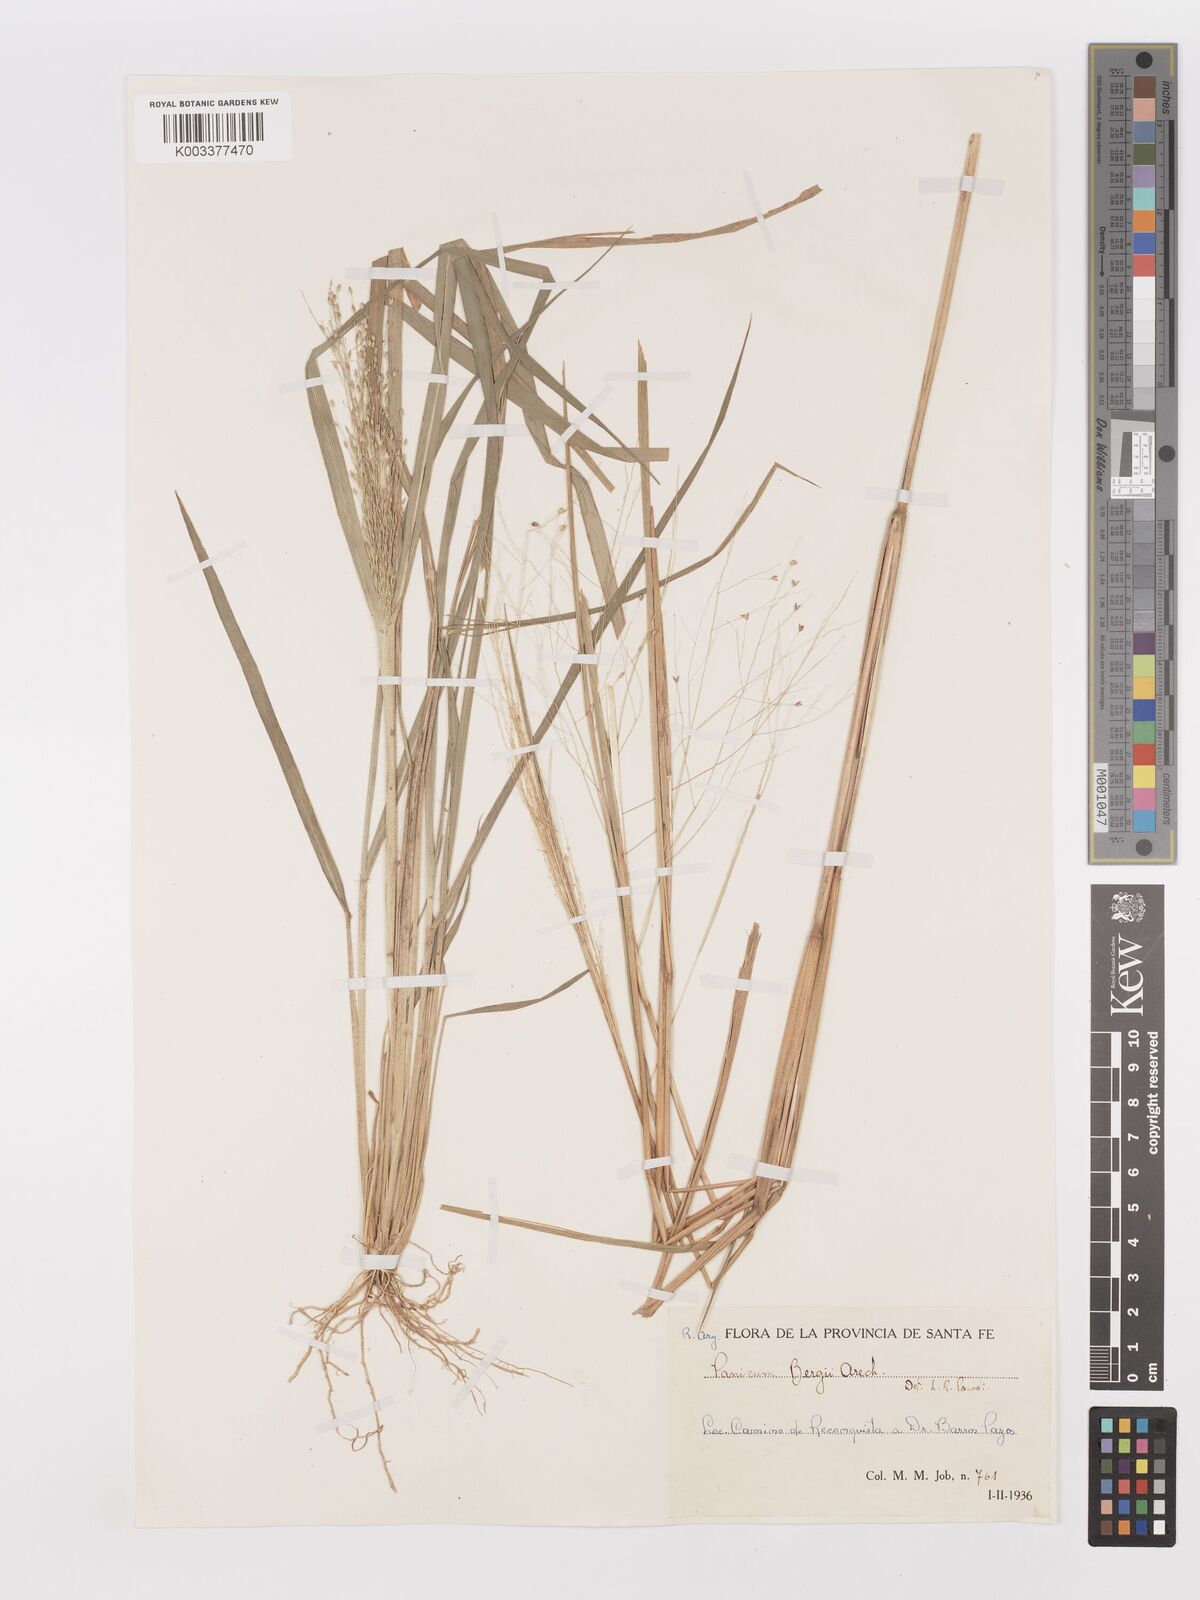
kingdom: Plantae
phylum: Tracheophyta
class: Liliopsida
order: Poales
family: Poaceae
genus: Panicum
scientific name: Panicum bergii
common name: Berg's panicgrass
